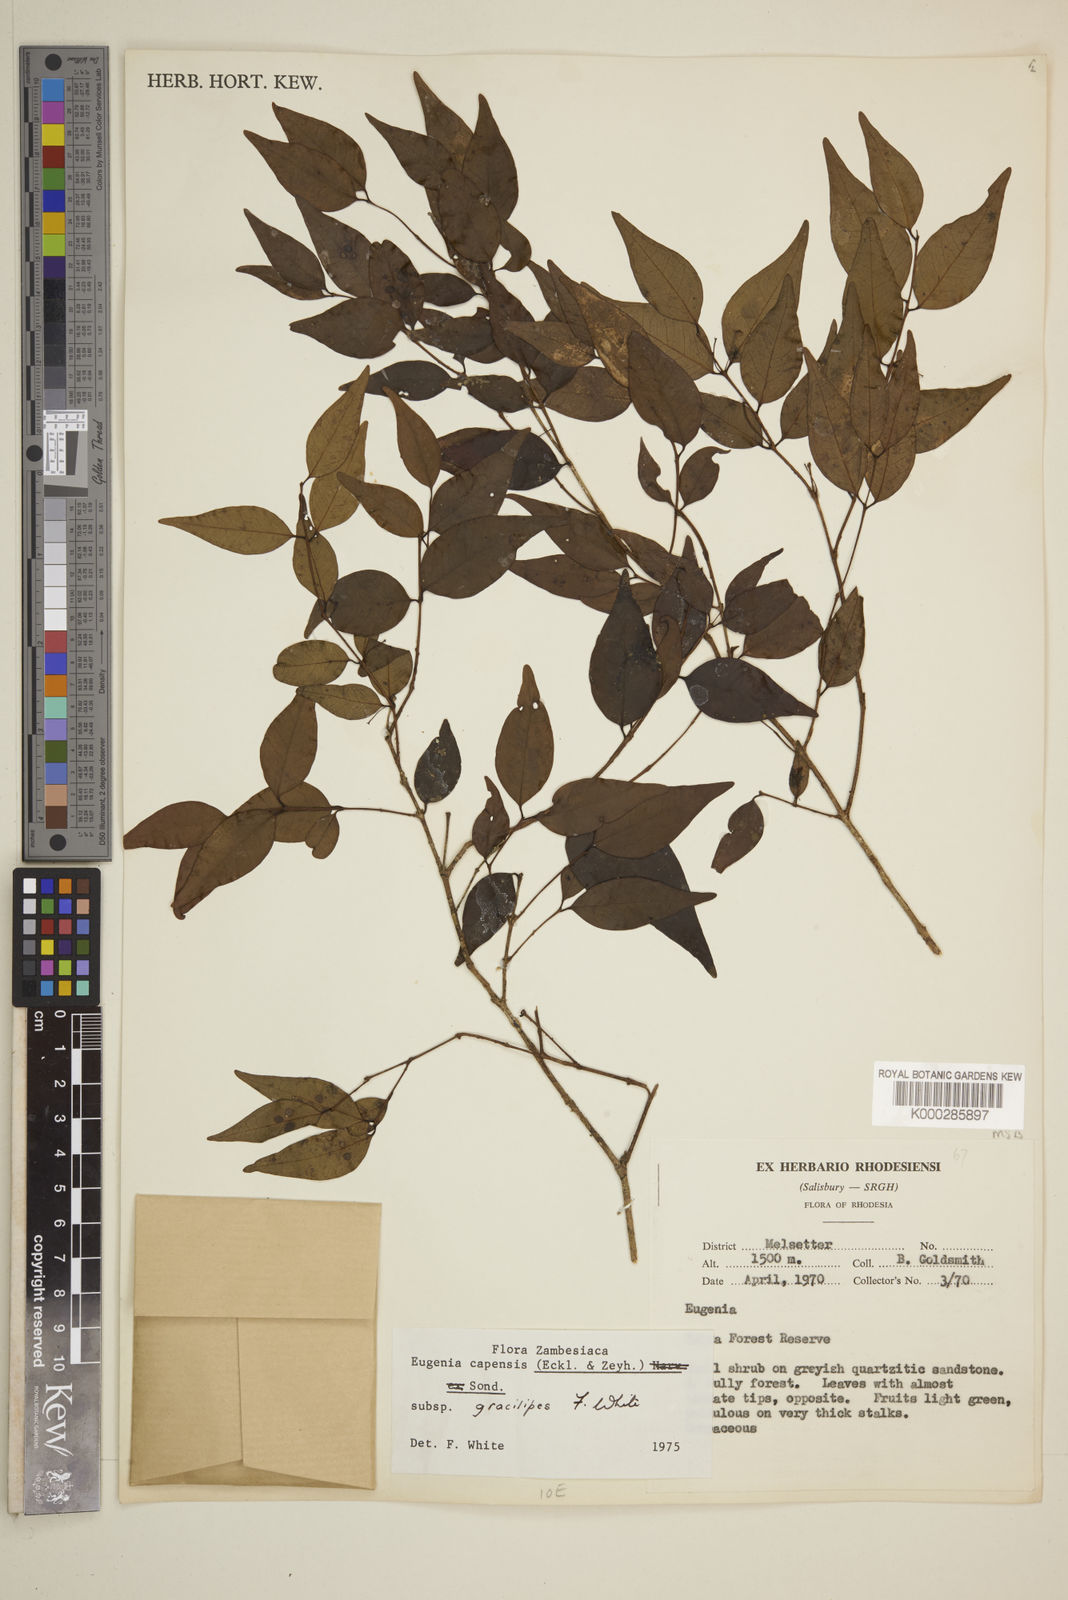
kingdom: Plantae
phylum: Tracheophyta
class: Magnoliopsida
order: Myrtales
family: Myrtaceae
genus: Eugenia
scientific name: Eugenia capensis
